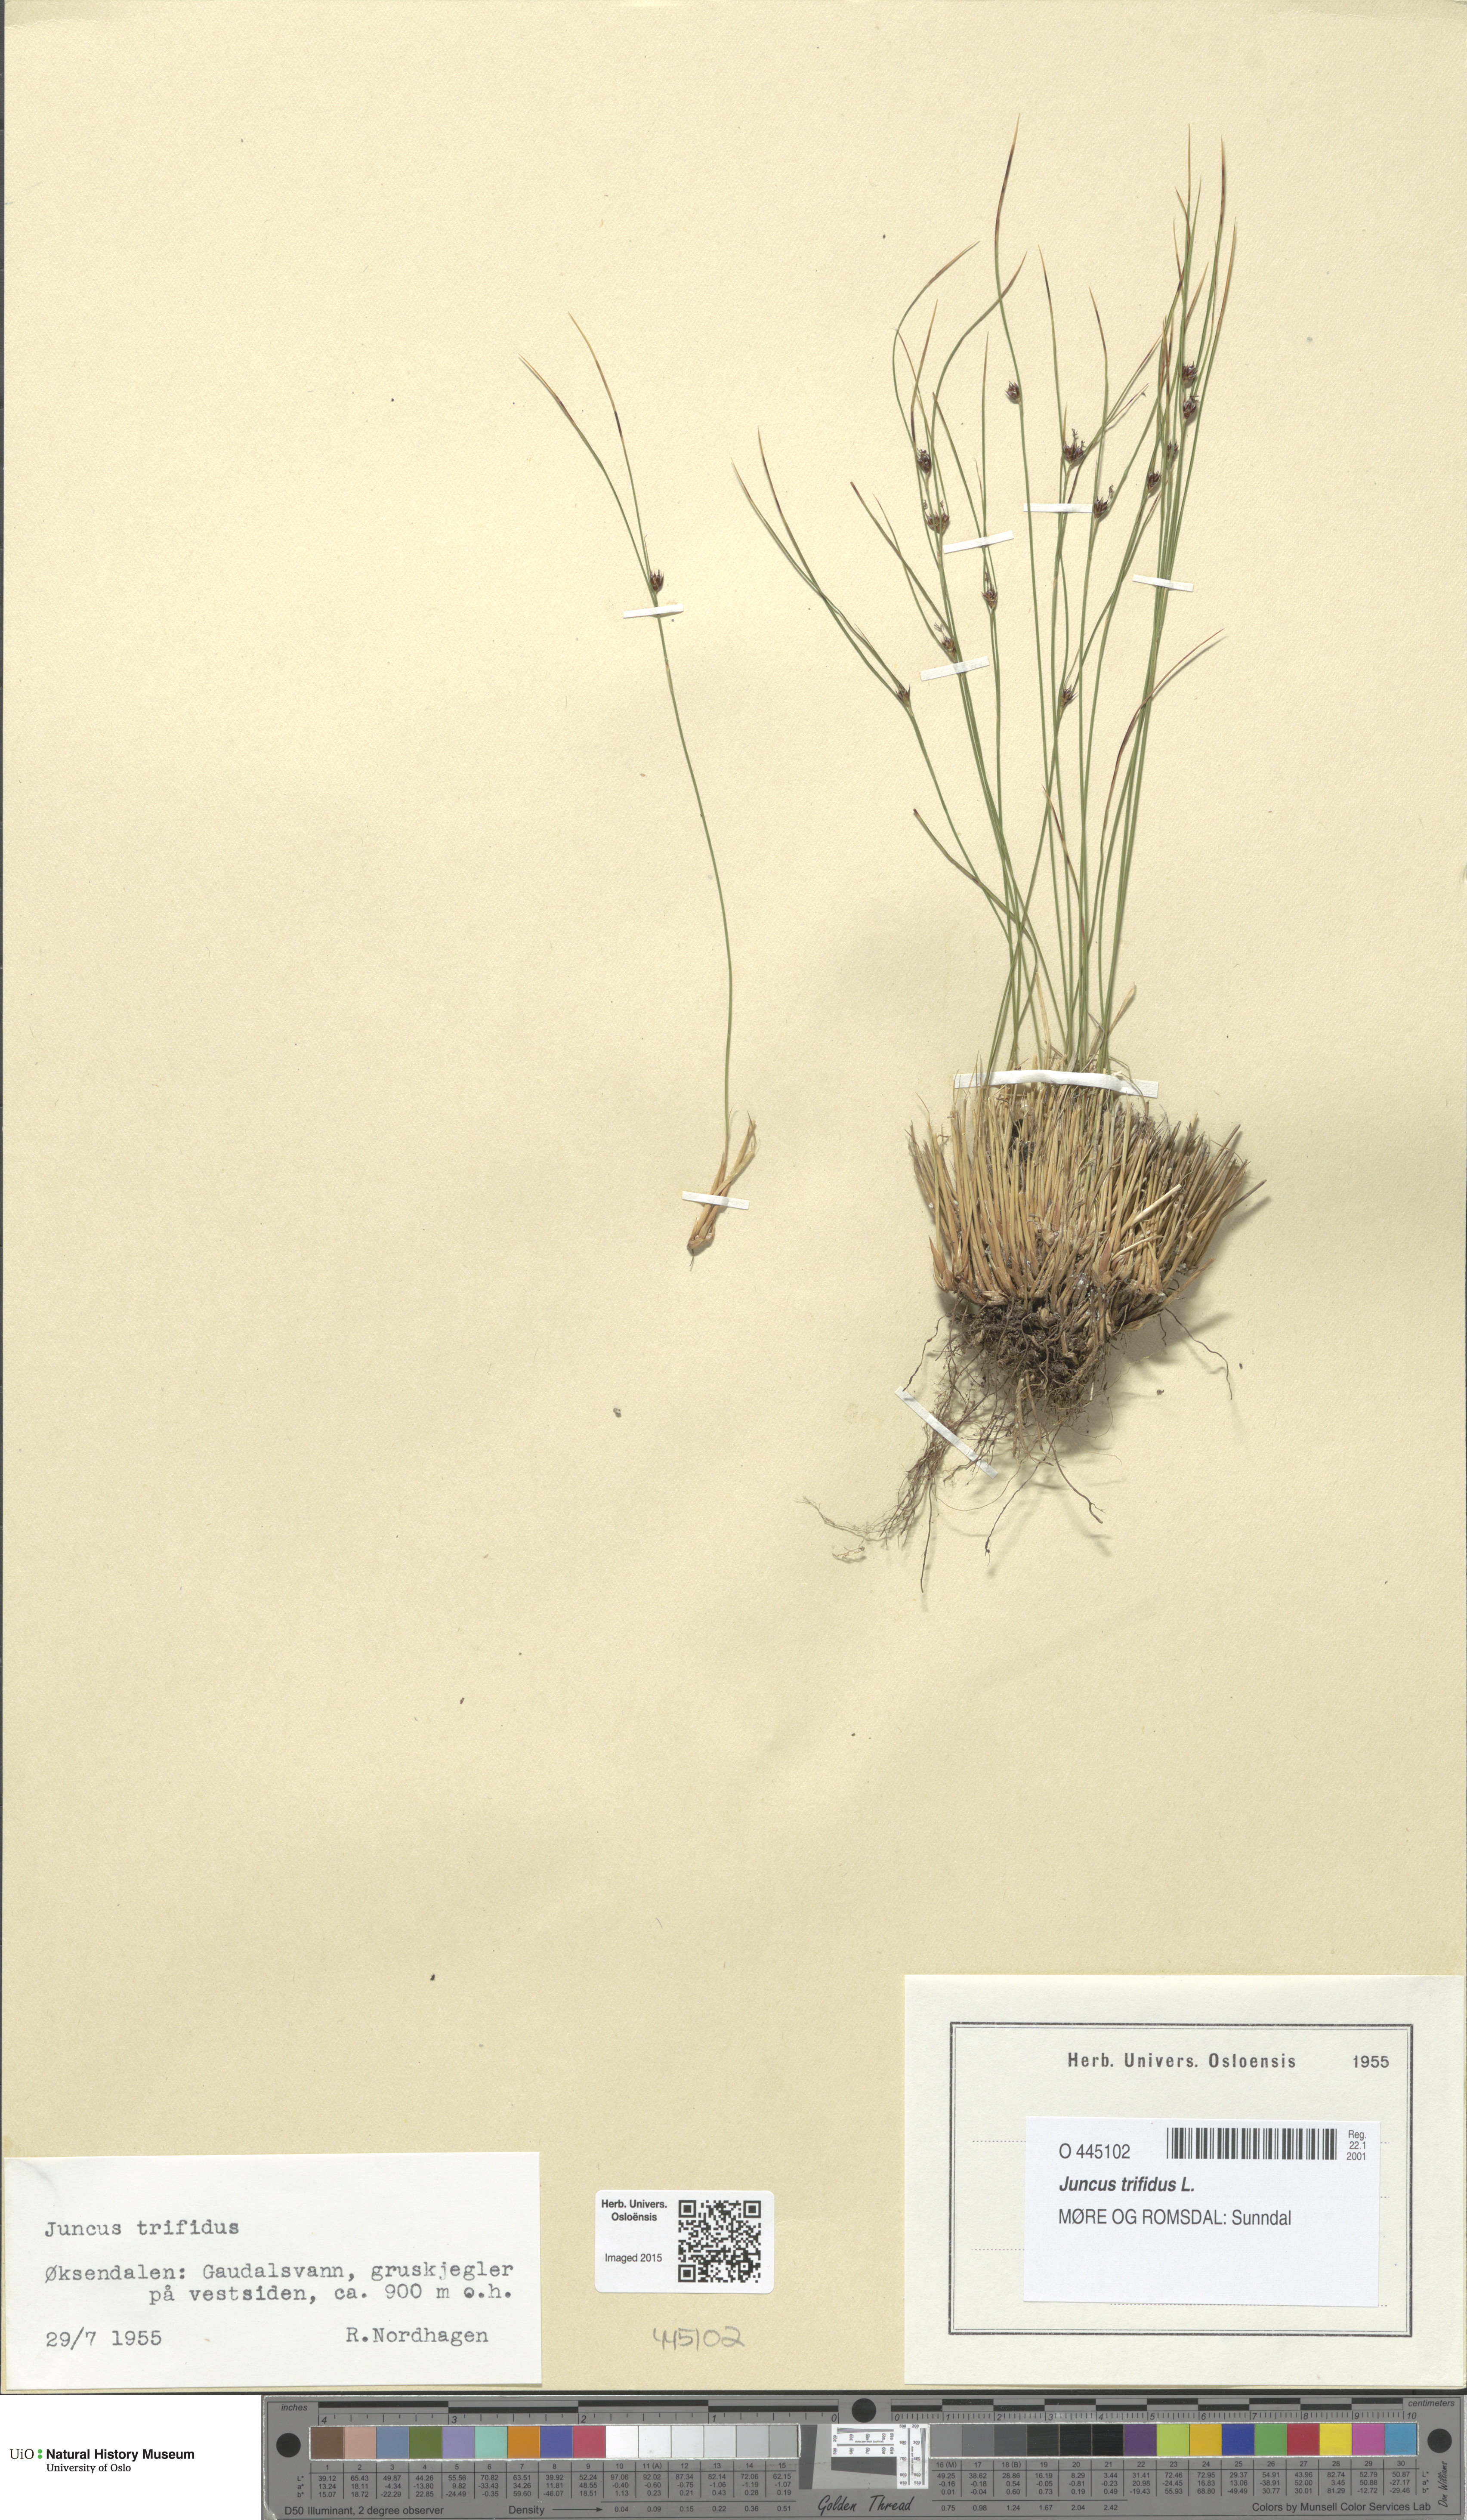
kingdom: Plantae
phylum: Tracheophyta
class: Liliopsida
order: Poales
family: Juncaceae
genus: Oreojuncus
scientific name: Oreojuncus trifidus
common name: Highland rush
